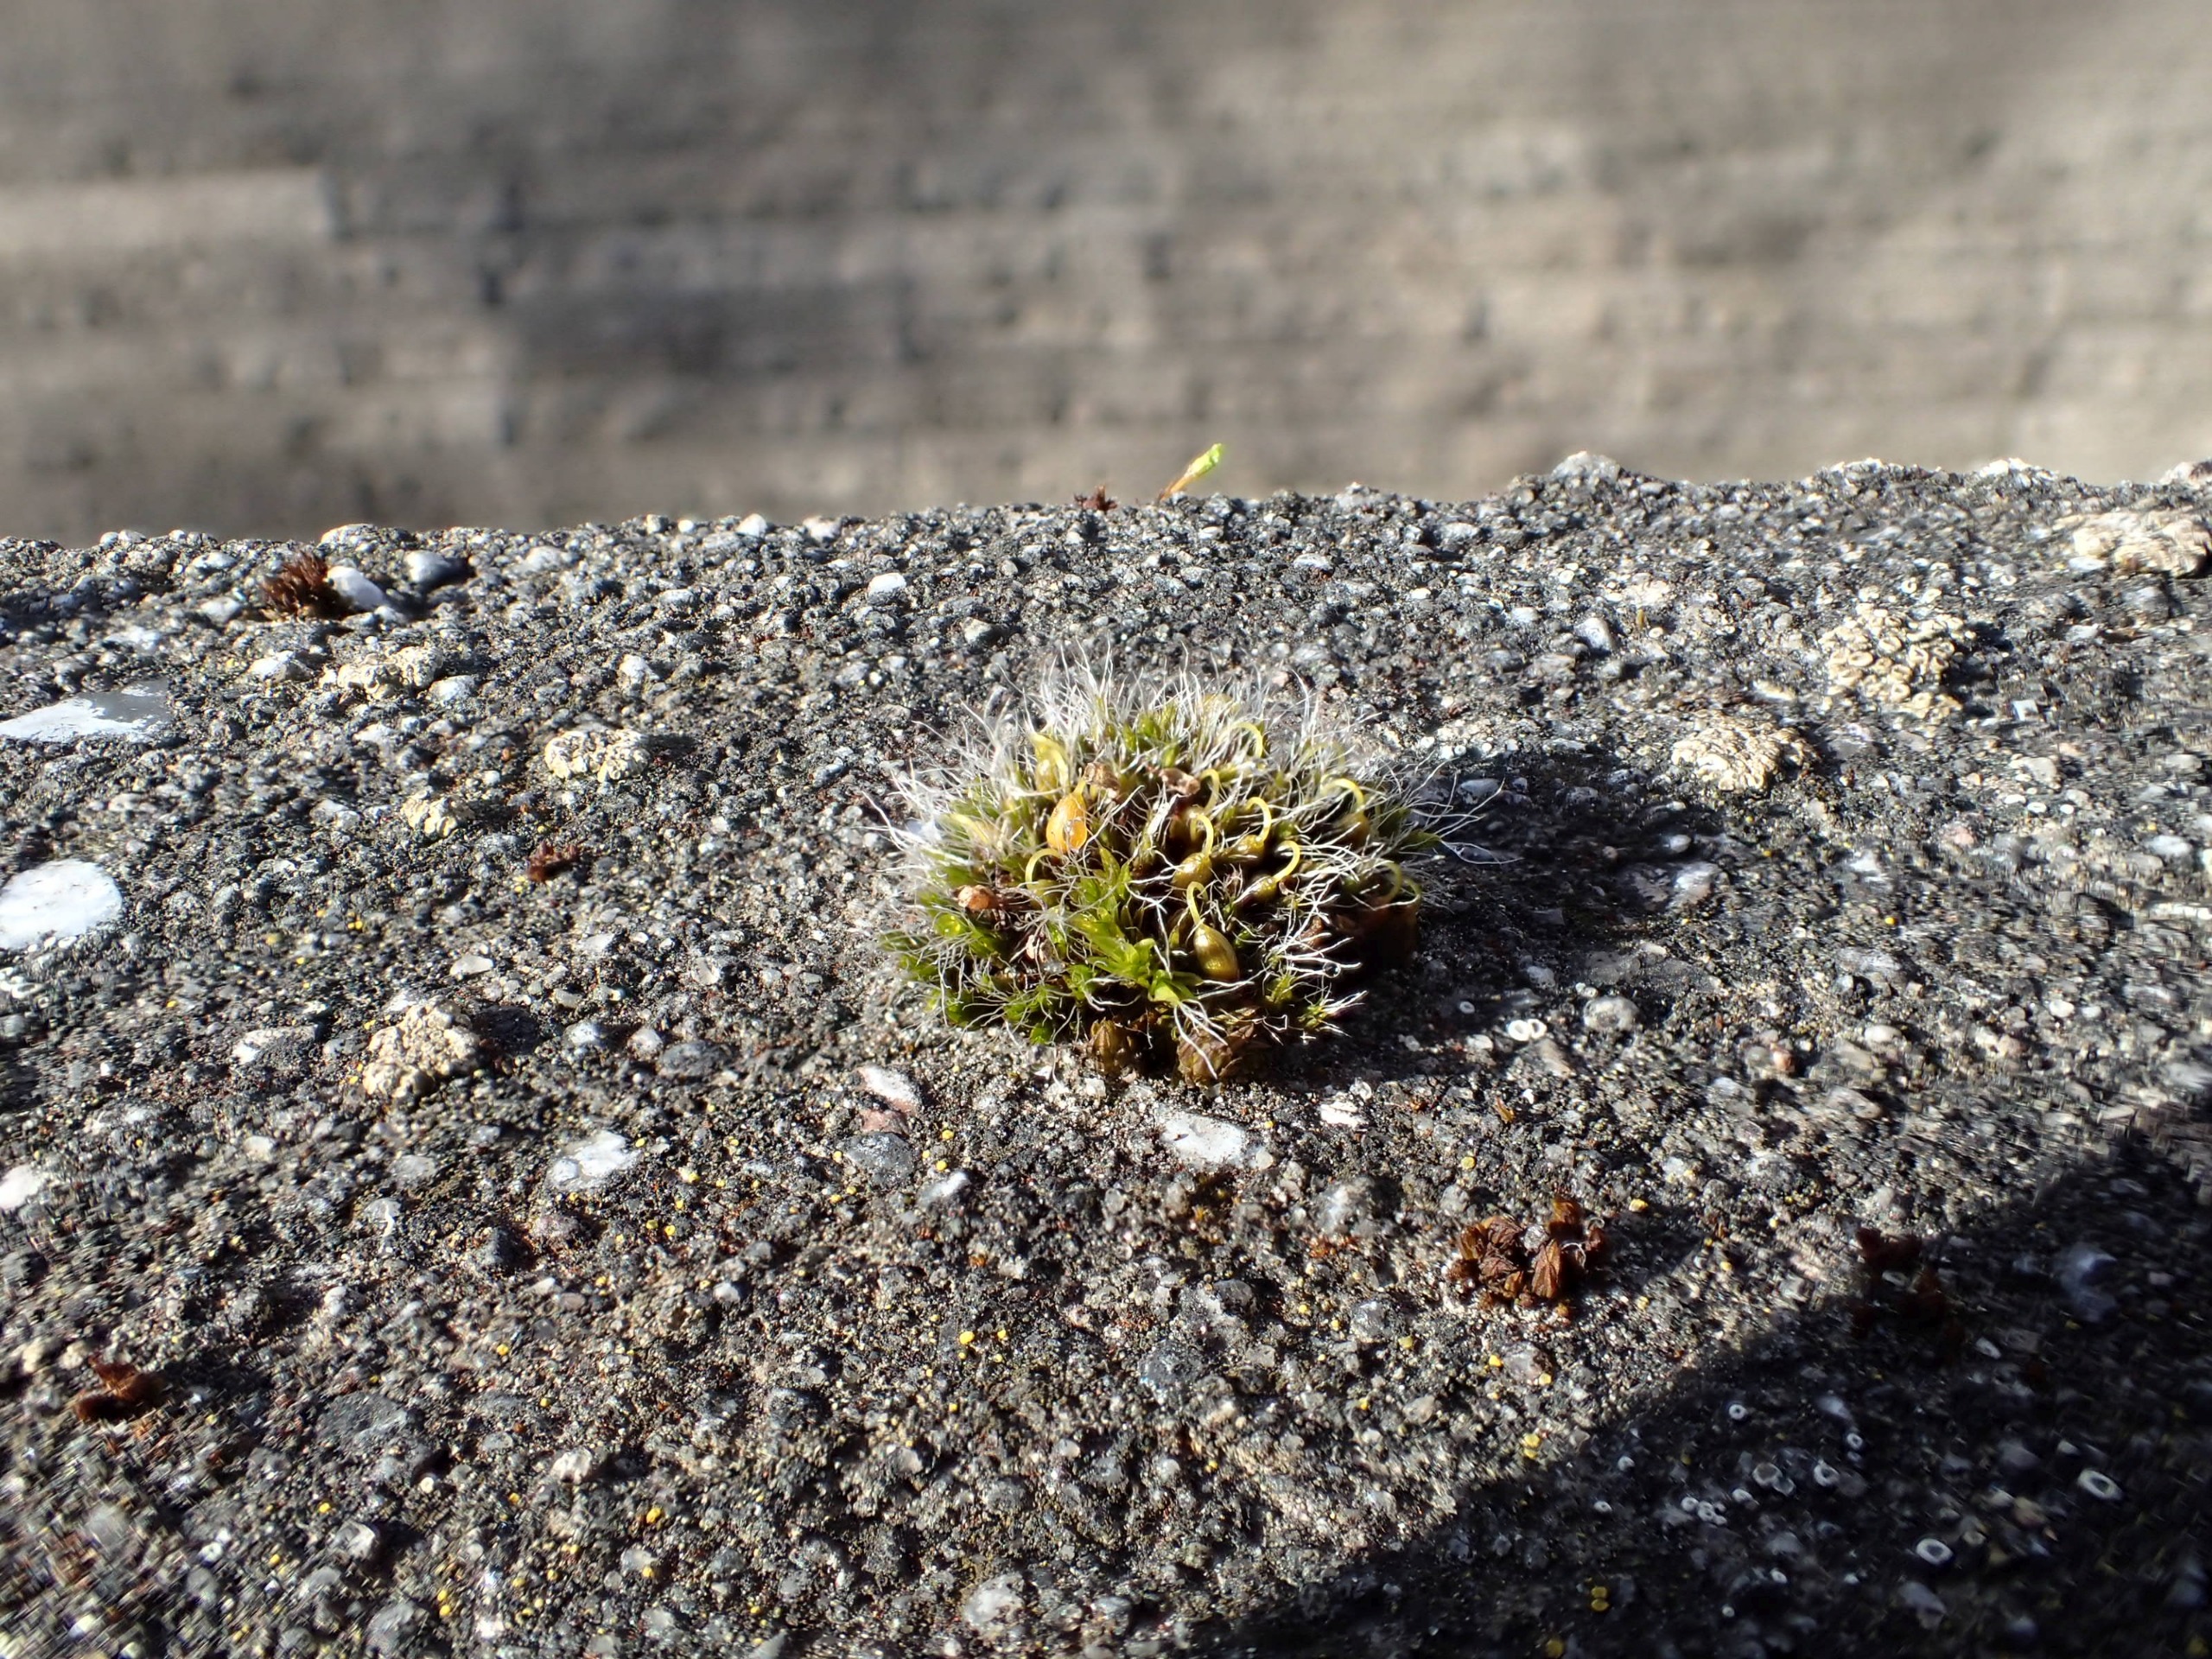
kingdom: Plantae
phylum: Bryophyta
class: Bryopsida
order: Grimmiales
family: Grimmiaceae
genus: Grimmia
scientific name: Grimmia pulvinata
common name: Pude-gråmos
